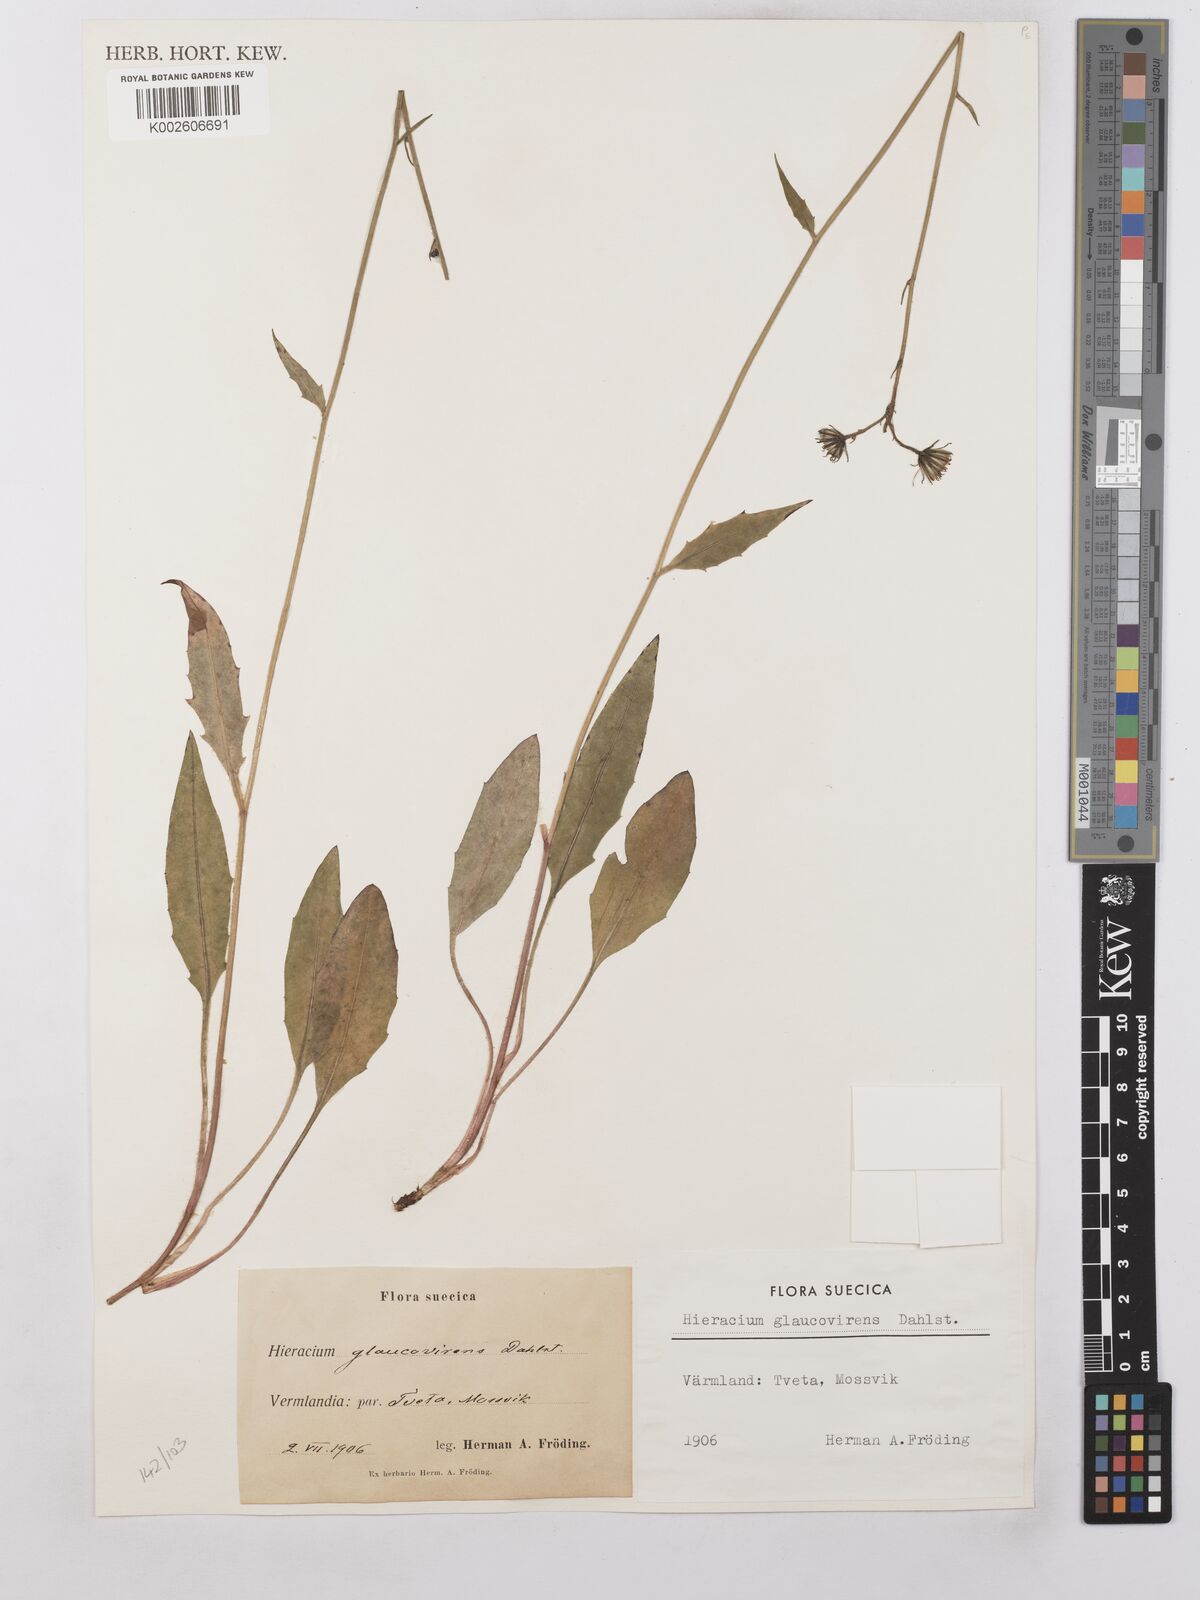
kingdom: Plantae
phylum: Tracheophyta
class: Magnoliopsida
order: Asterales
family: Asteraceae
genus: Hieracium
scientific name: Hieracium lachenalii
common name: Common hawkweed
